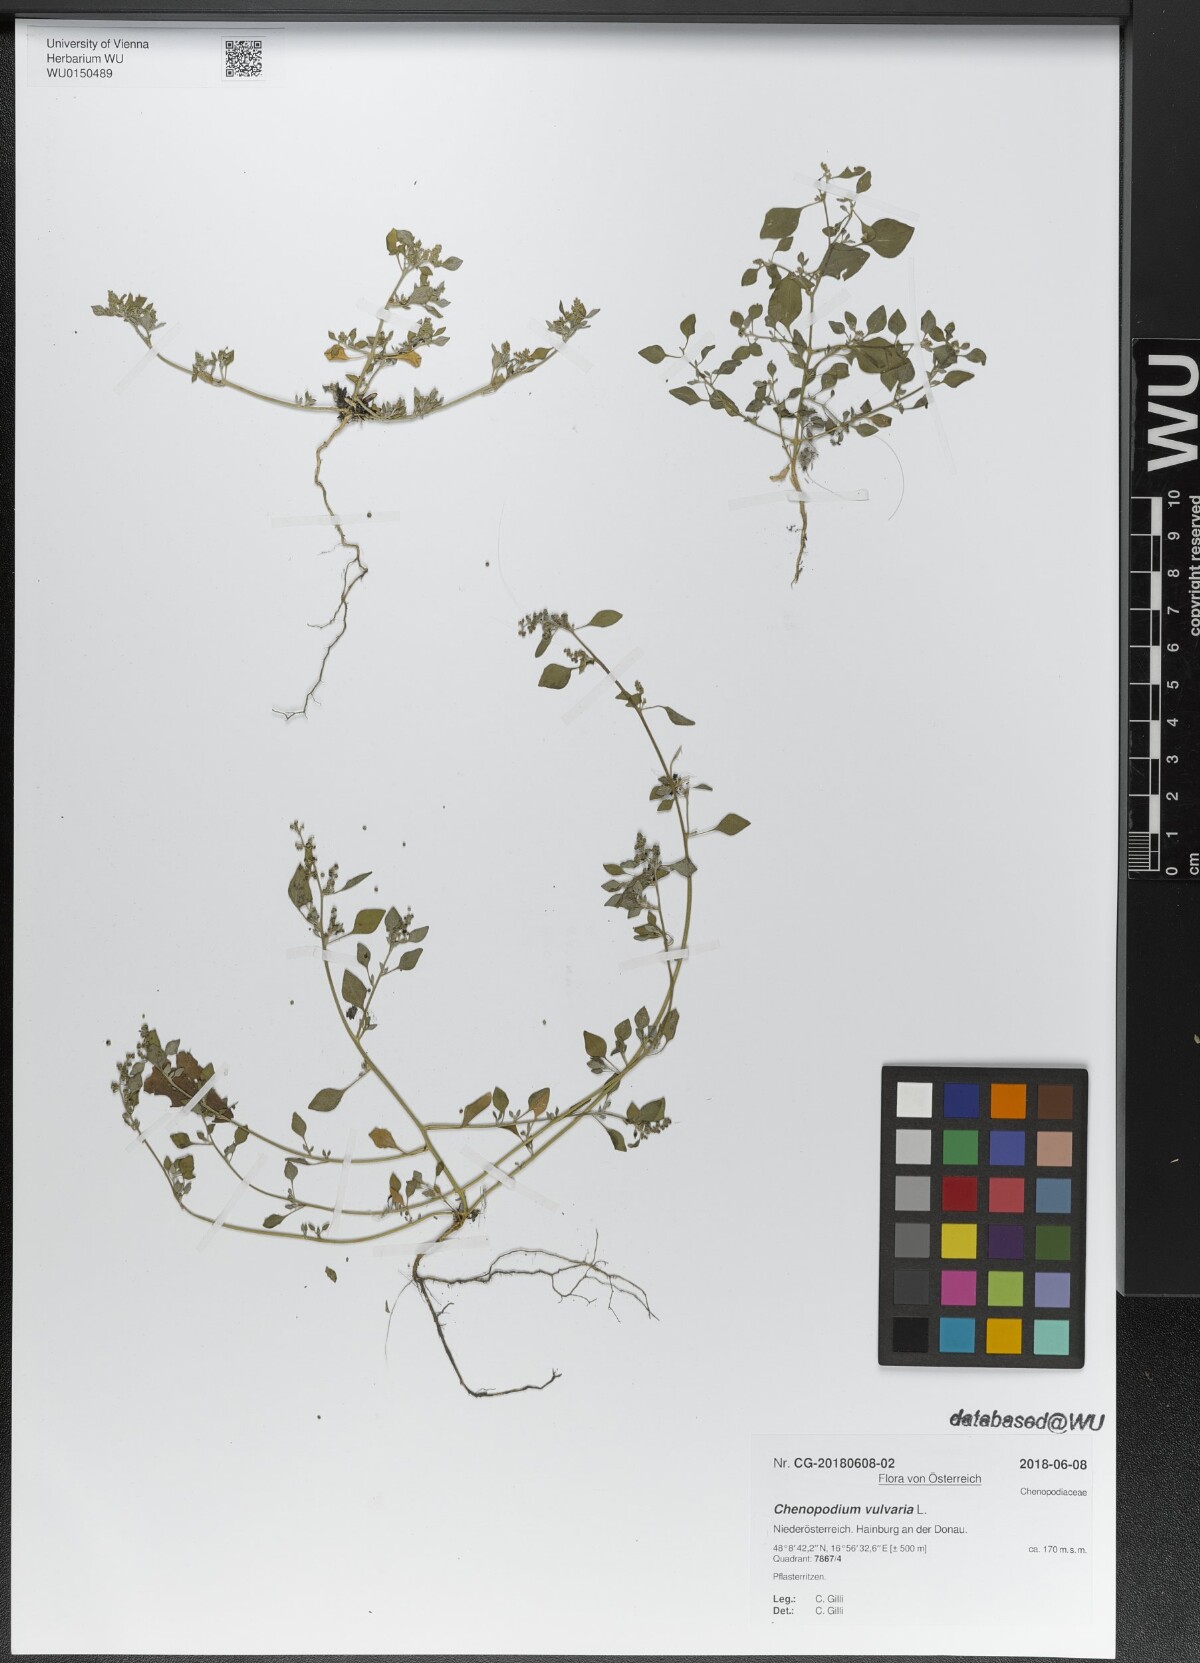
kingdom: Plantae
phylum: Tracheophyta
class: Magnoliopsida
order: Caryophyllales
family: Amaranthaceae
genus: Chenopodium
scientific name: Chenopodium vulvaria
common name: Stinking goosefoot
